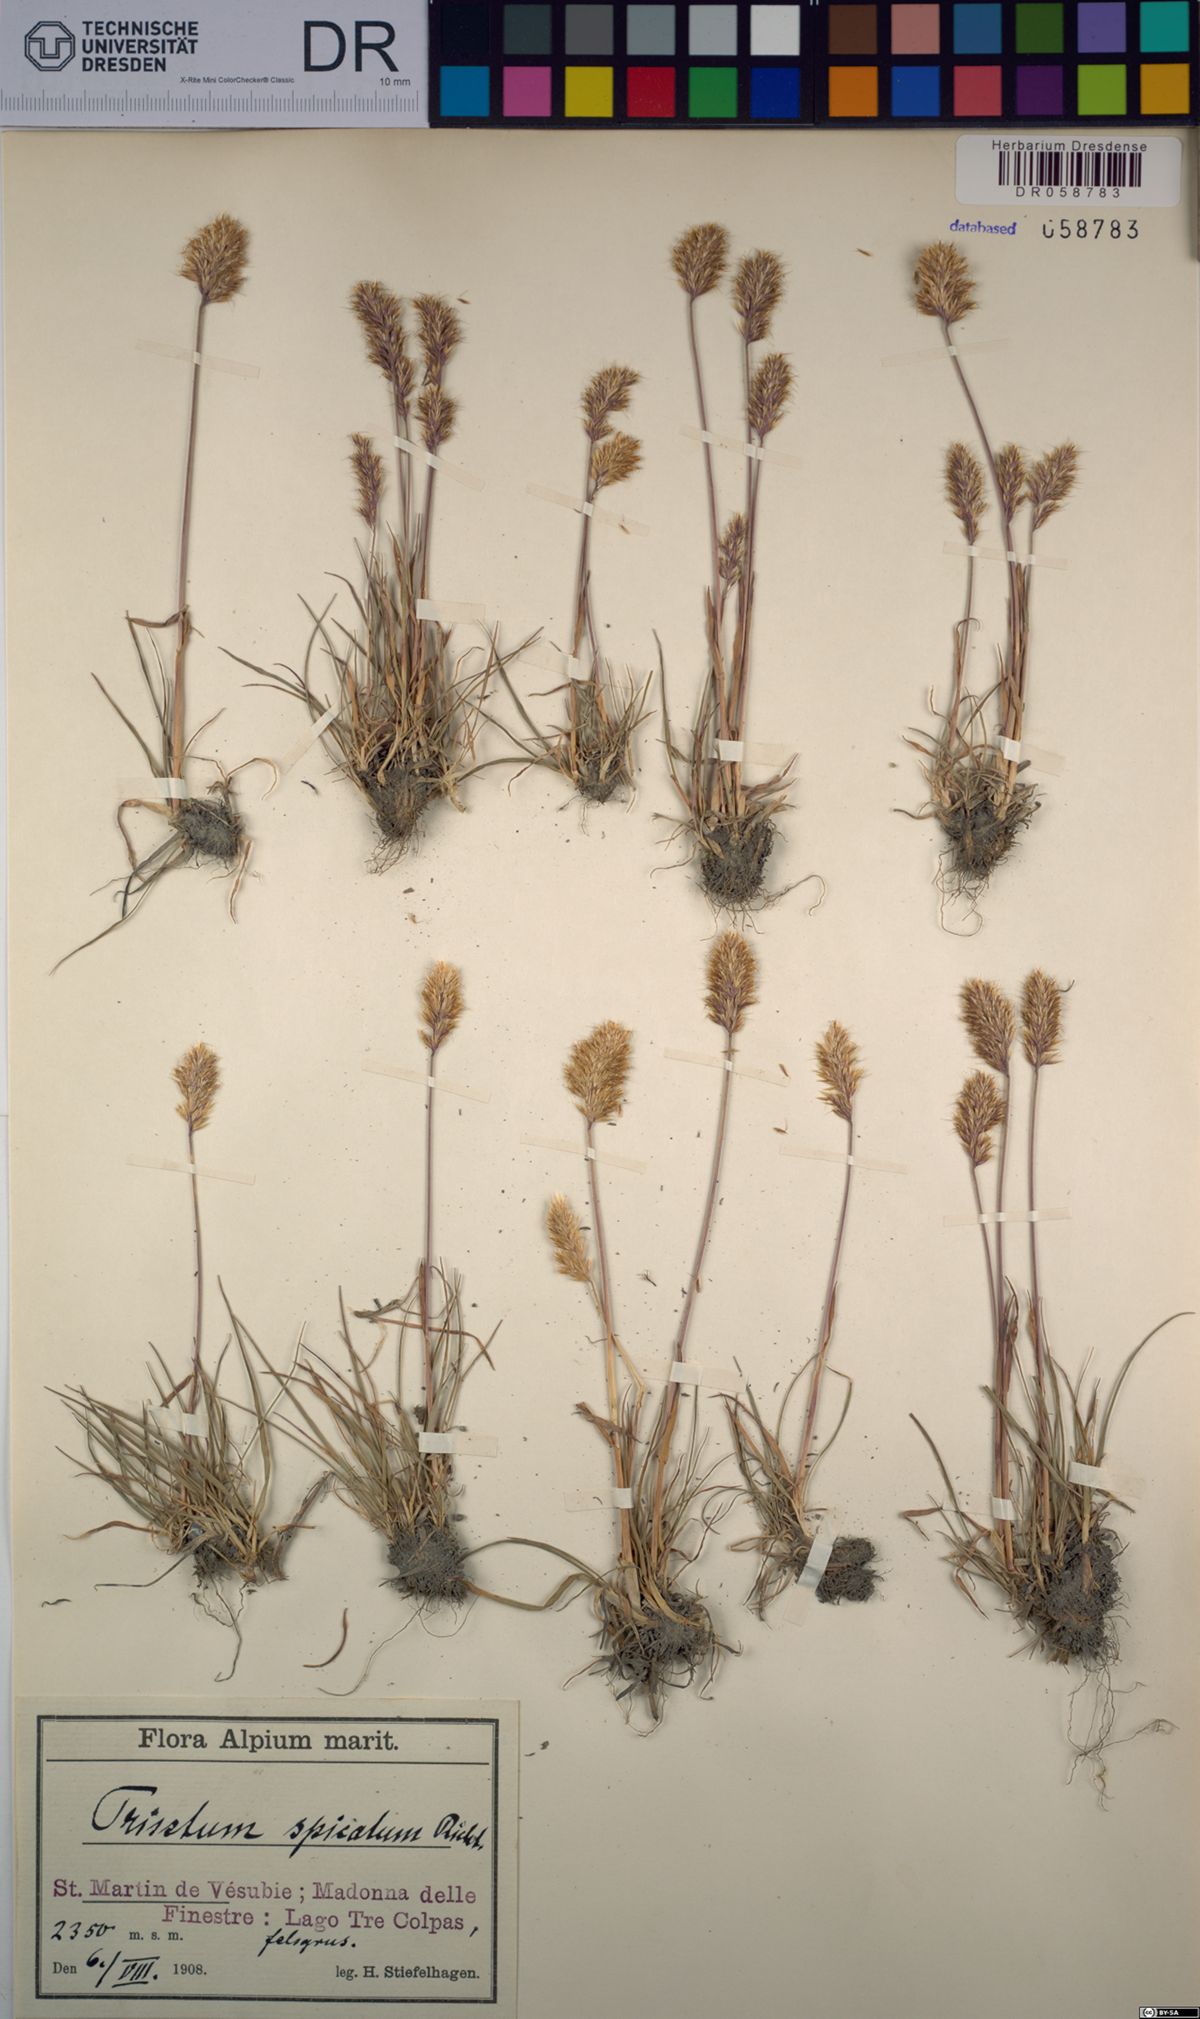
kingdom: Plantae
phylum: Tracheophyta
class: Liliopsida
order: Poales
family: Poaceae
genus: Koeleria
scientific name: Koeleria spicata
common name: Mountain trisetum
